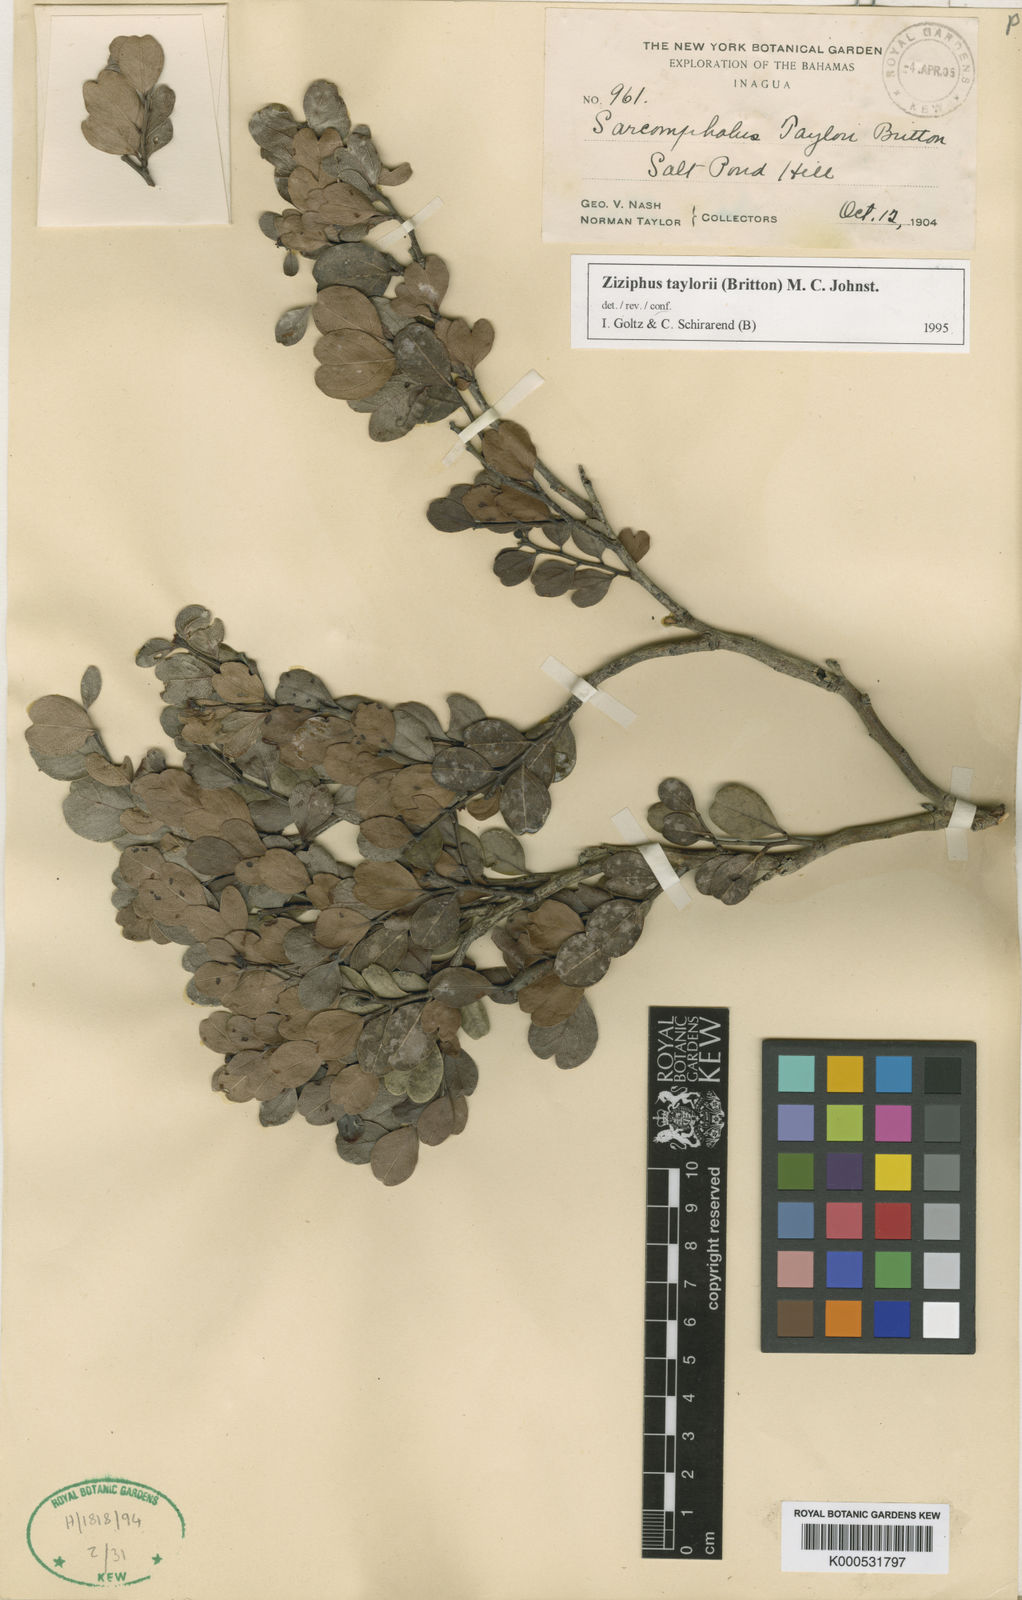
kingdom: Plantae
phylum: Tracheophyta
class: Magnoliopsida
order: Rosales
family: Rhamnaceae
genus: Sarcomphalus
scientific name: Sarcomphalus taylorii
